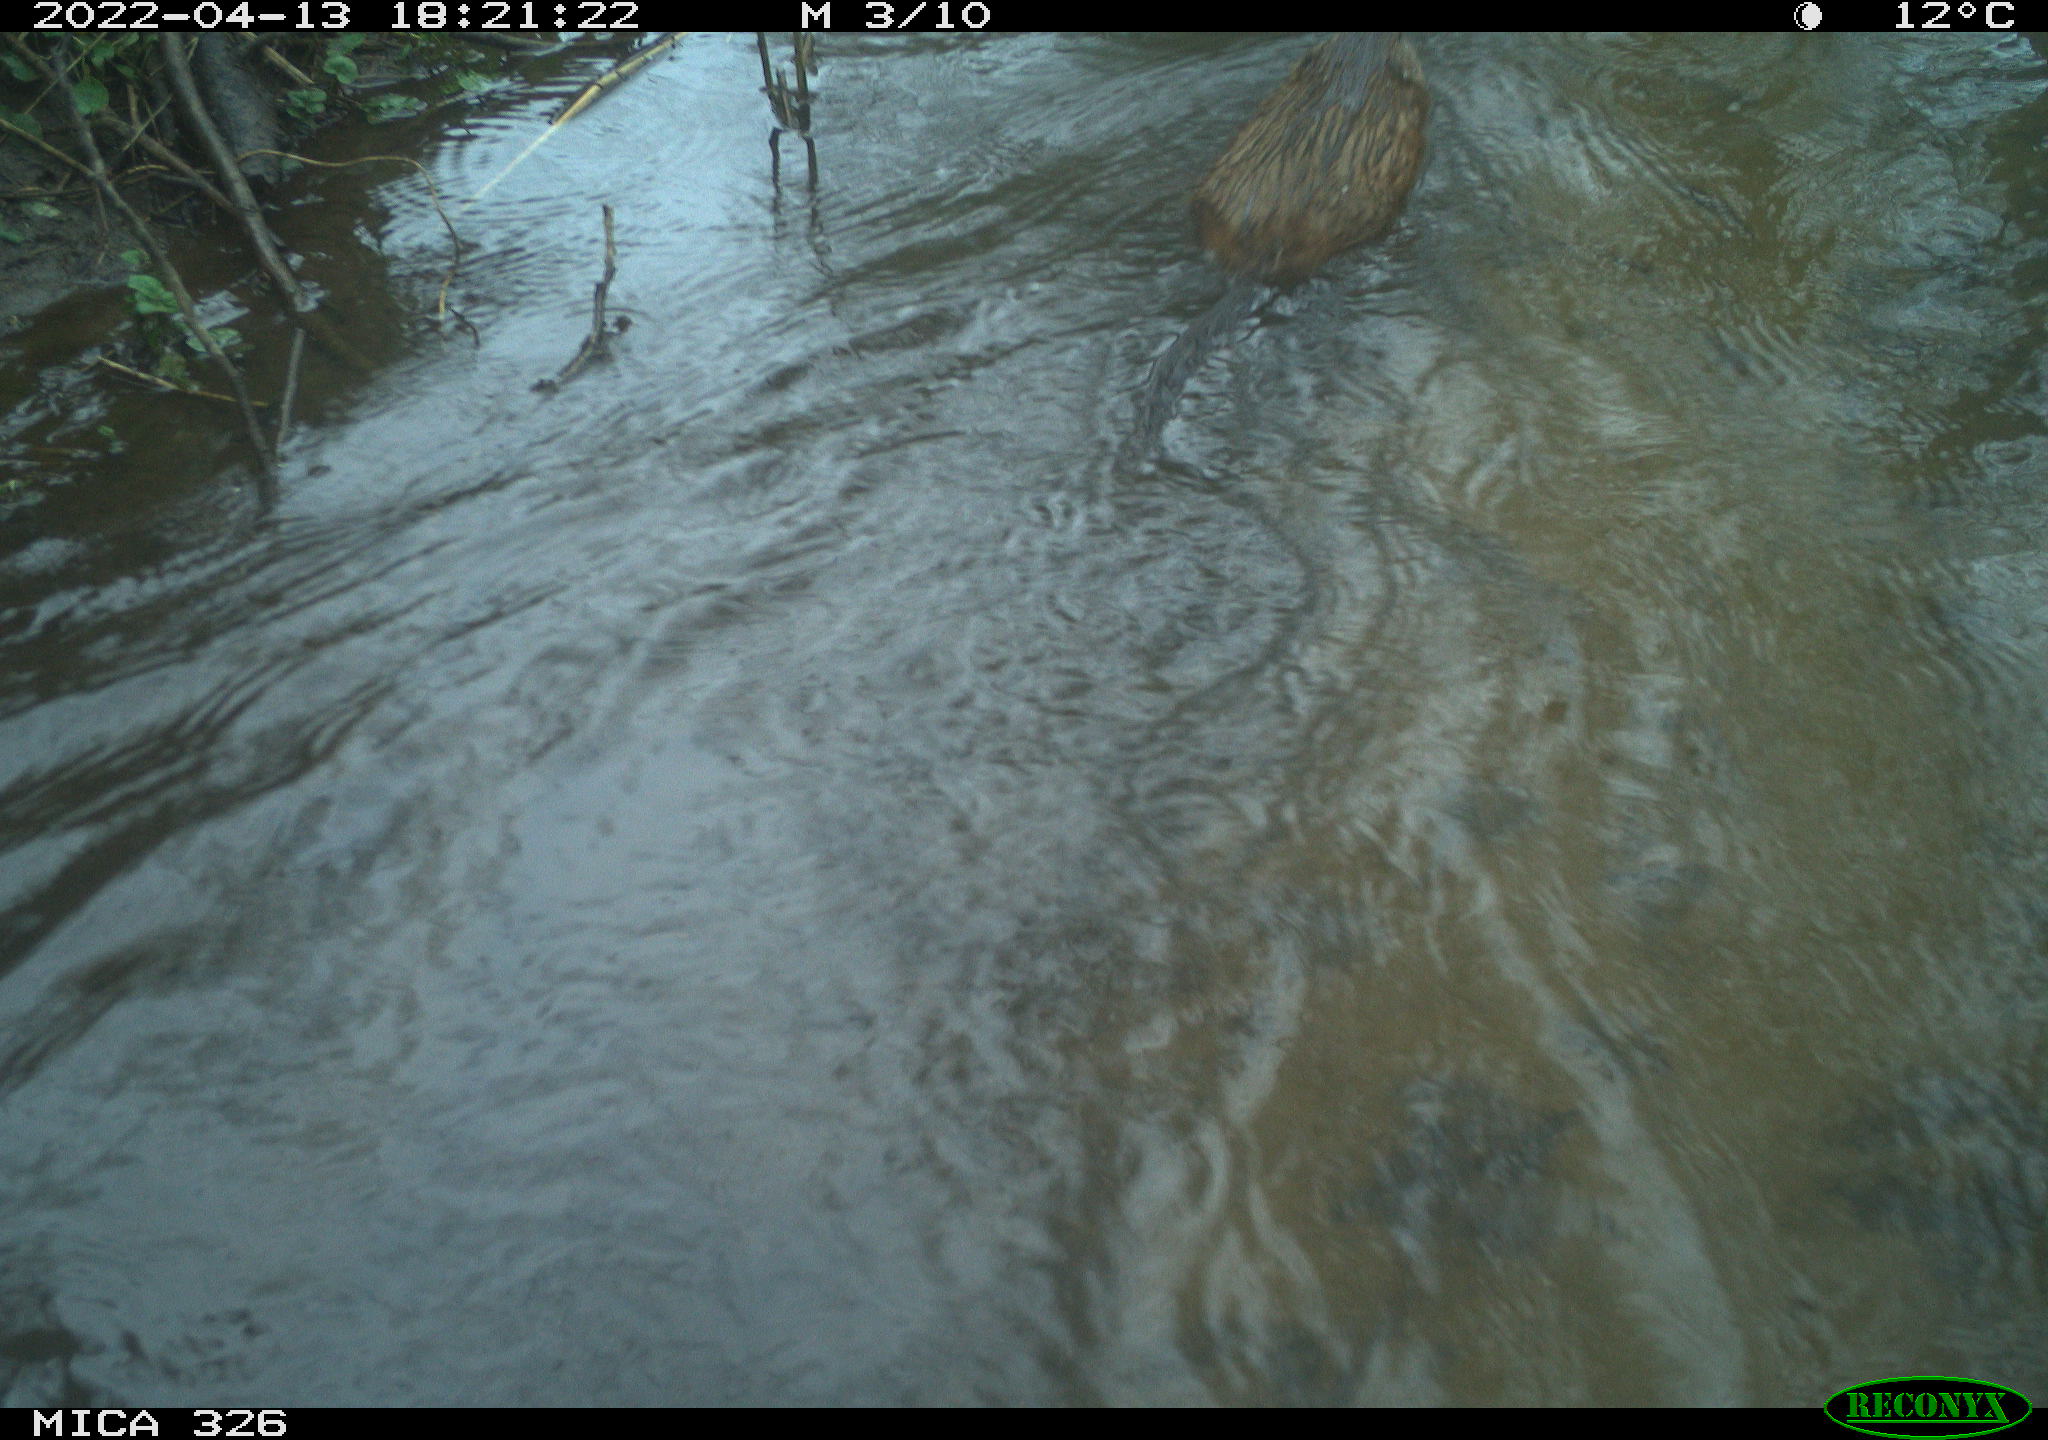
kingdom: Animalia
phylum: Chordata
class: Mammalia
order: Rodentia
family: Cricetidae
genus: Ondatra
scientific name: Ondatra zibethicus
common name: Muskrat
